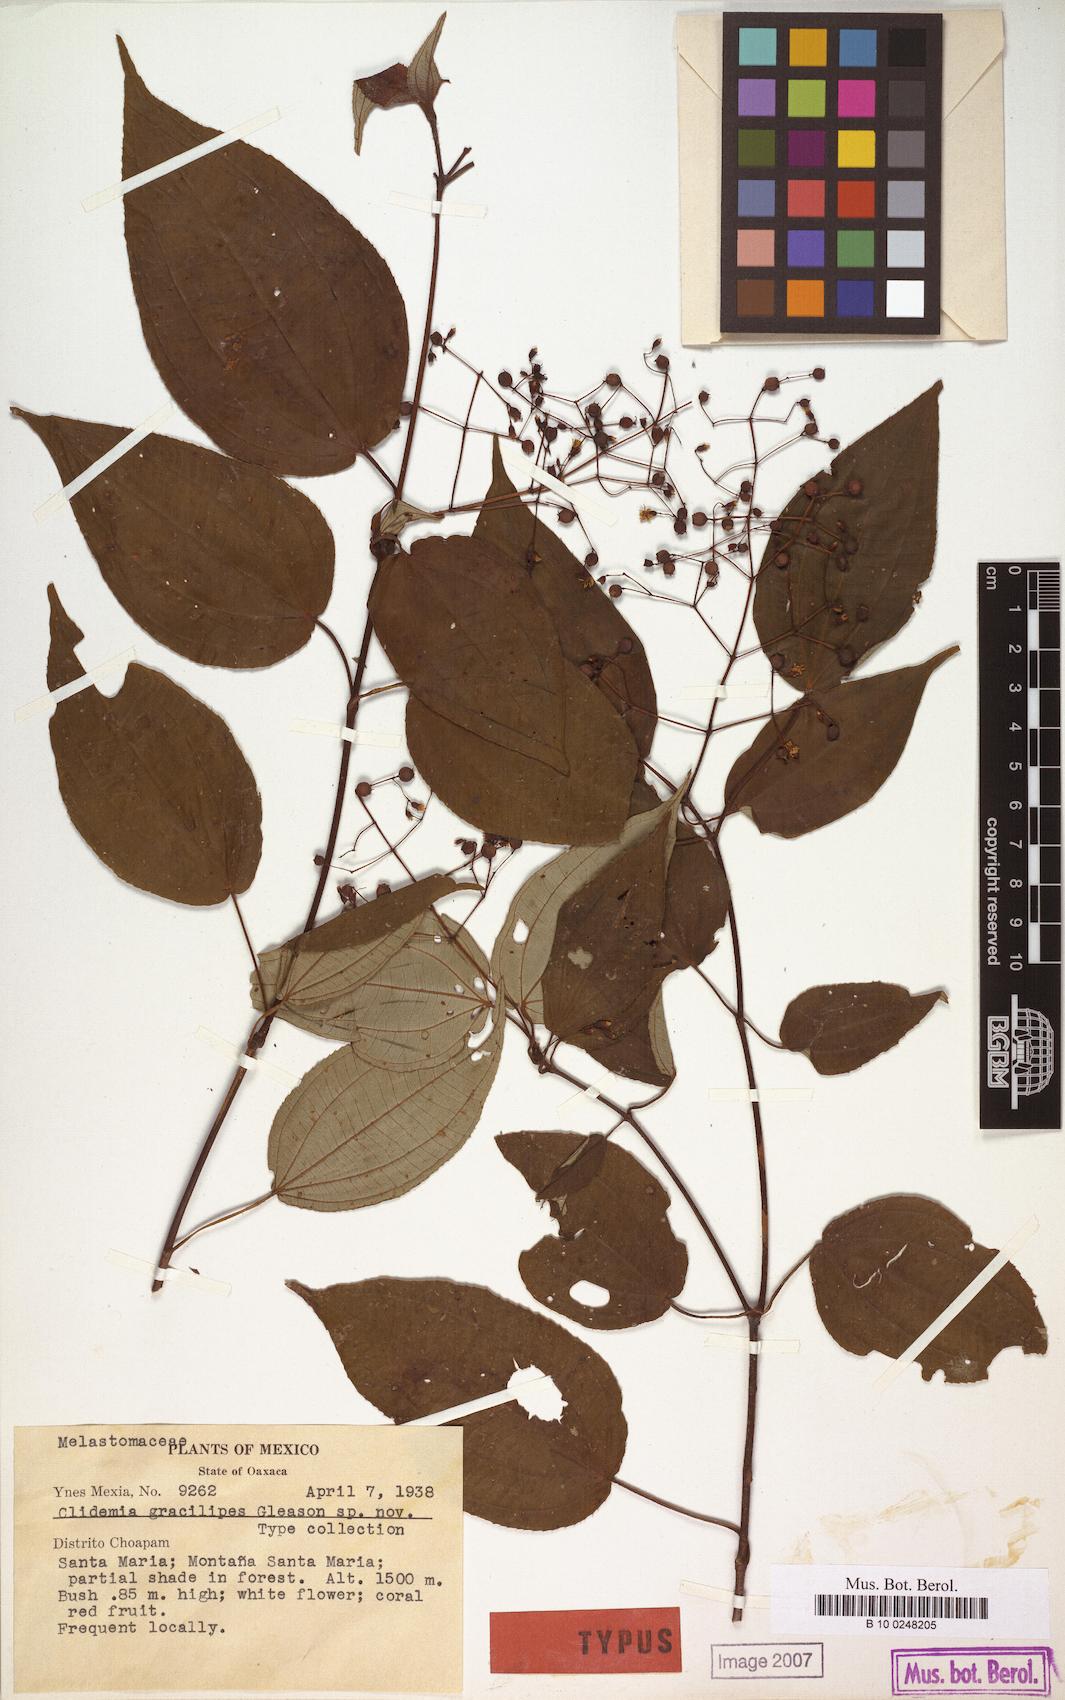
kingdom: Plantae
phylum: Tracheophyta
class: Magnoliopsida
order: Myrtales
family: Melastomataceae
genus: Miconia
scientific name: Miconia gracilipes
